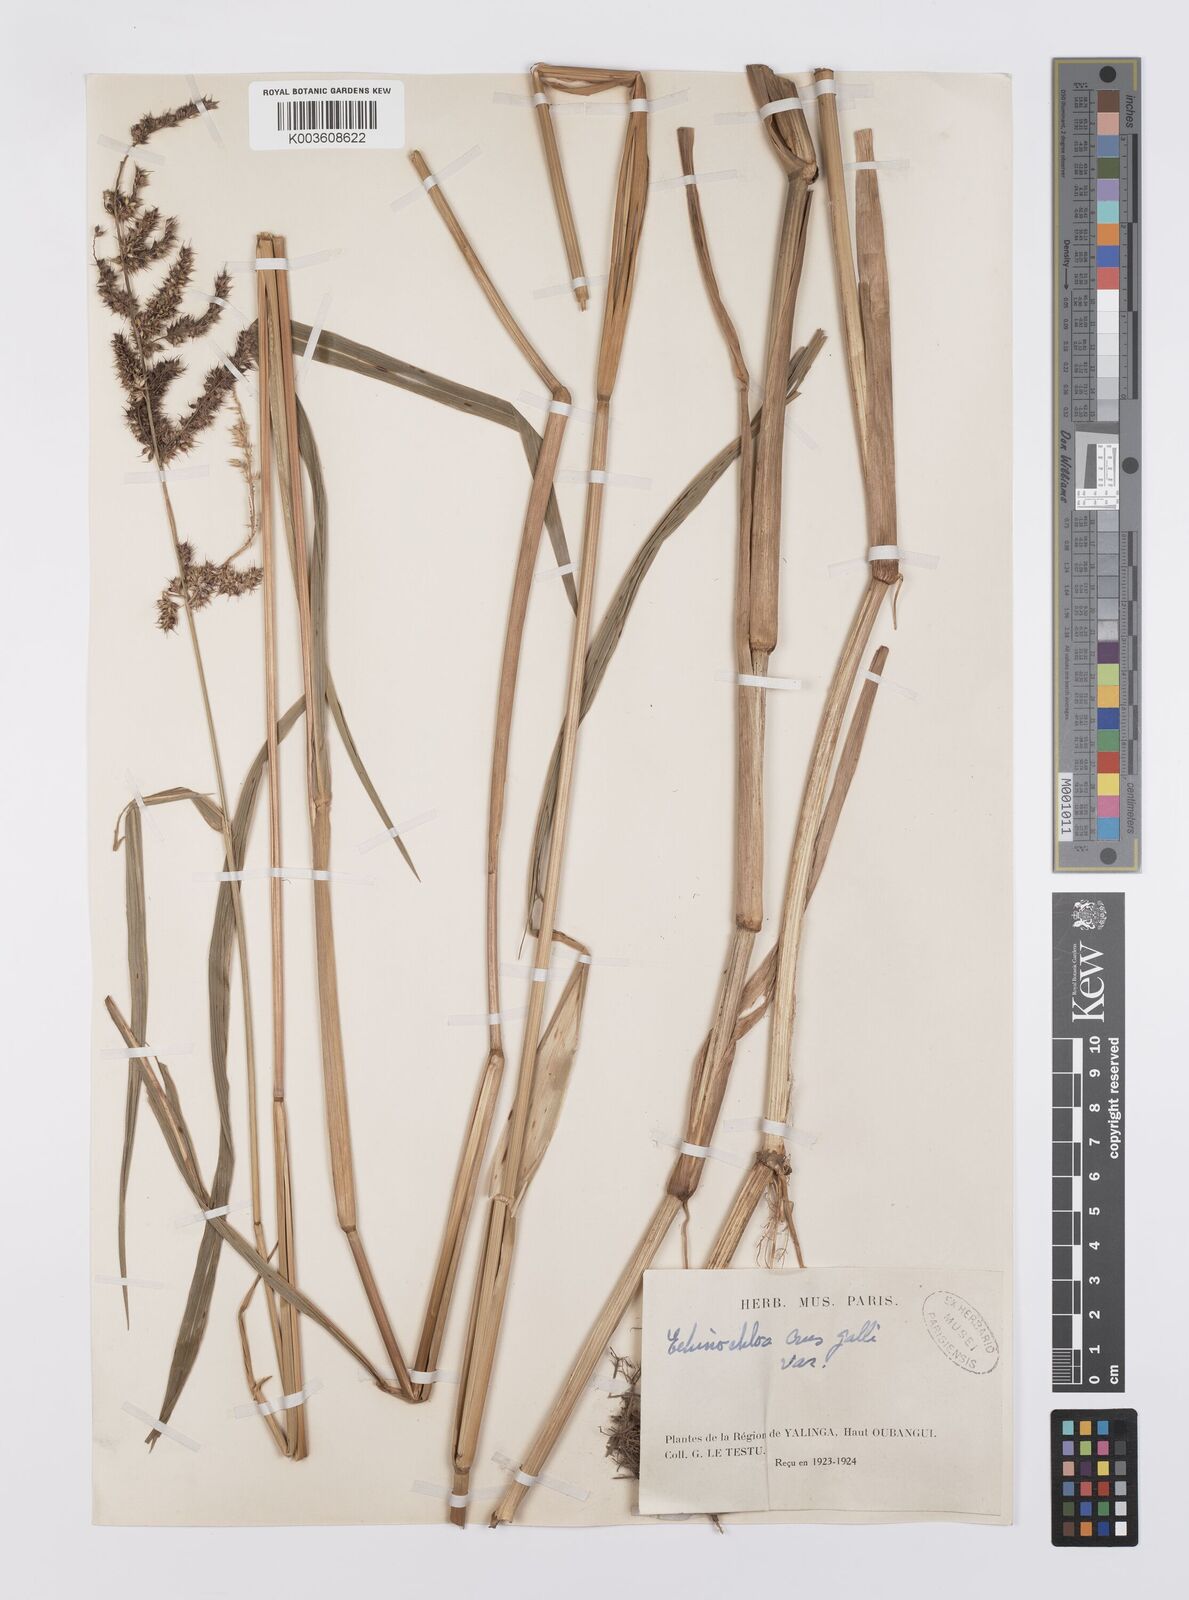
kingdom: Plantae
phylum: Tracheophyta
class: Liliopsida
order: Poales
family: Poaceae
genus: Echinochloa
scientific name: Echinochloa crus-pavonis
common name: Gulf cockspur grass
